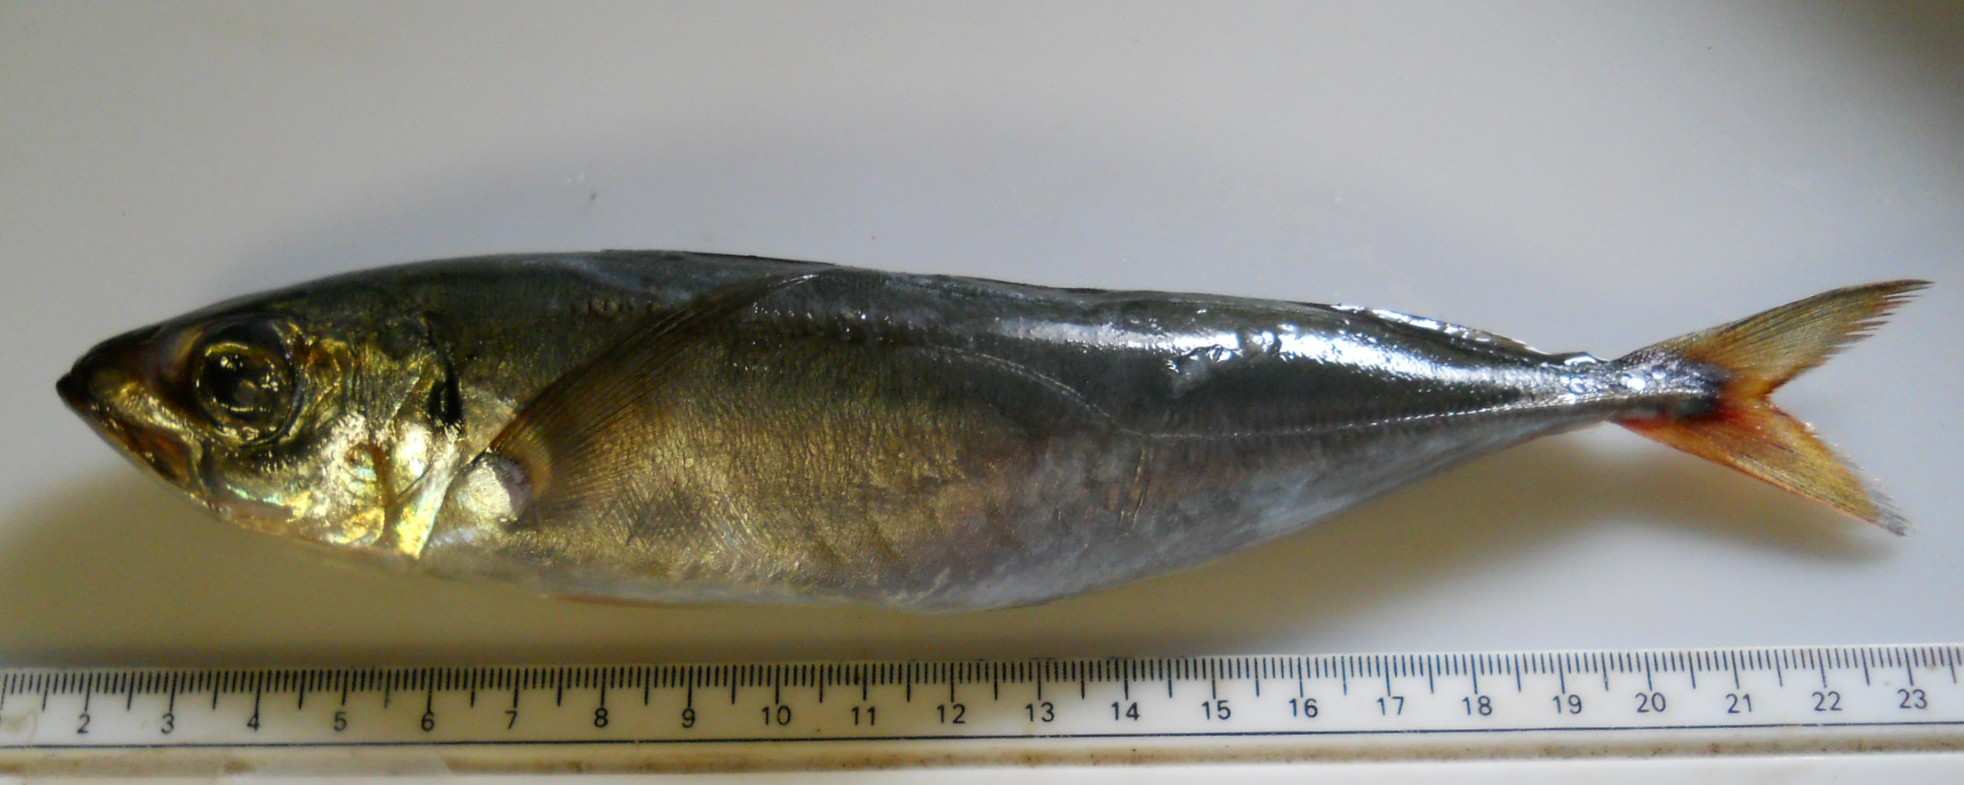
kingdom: Animalia
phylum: Chordata
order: Perciformes
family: Carangidae
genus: Trachurus
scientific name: Trachurus trachurus
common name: Horse mackerel
